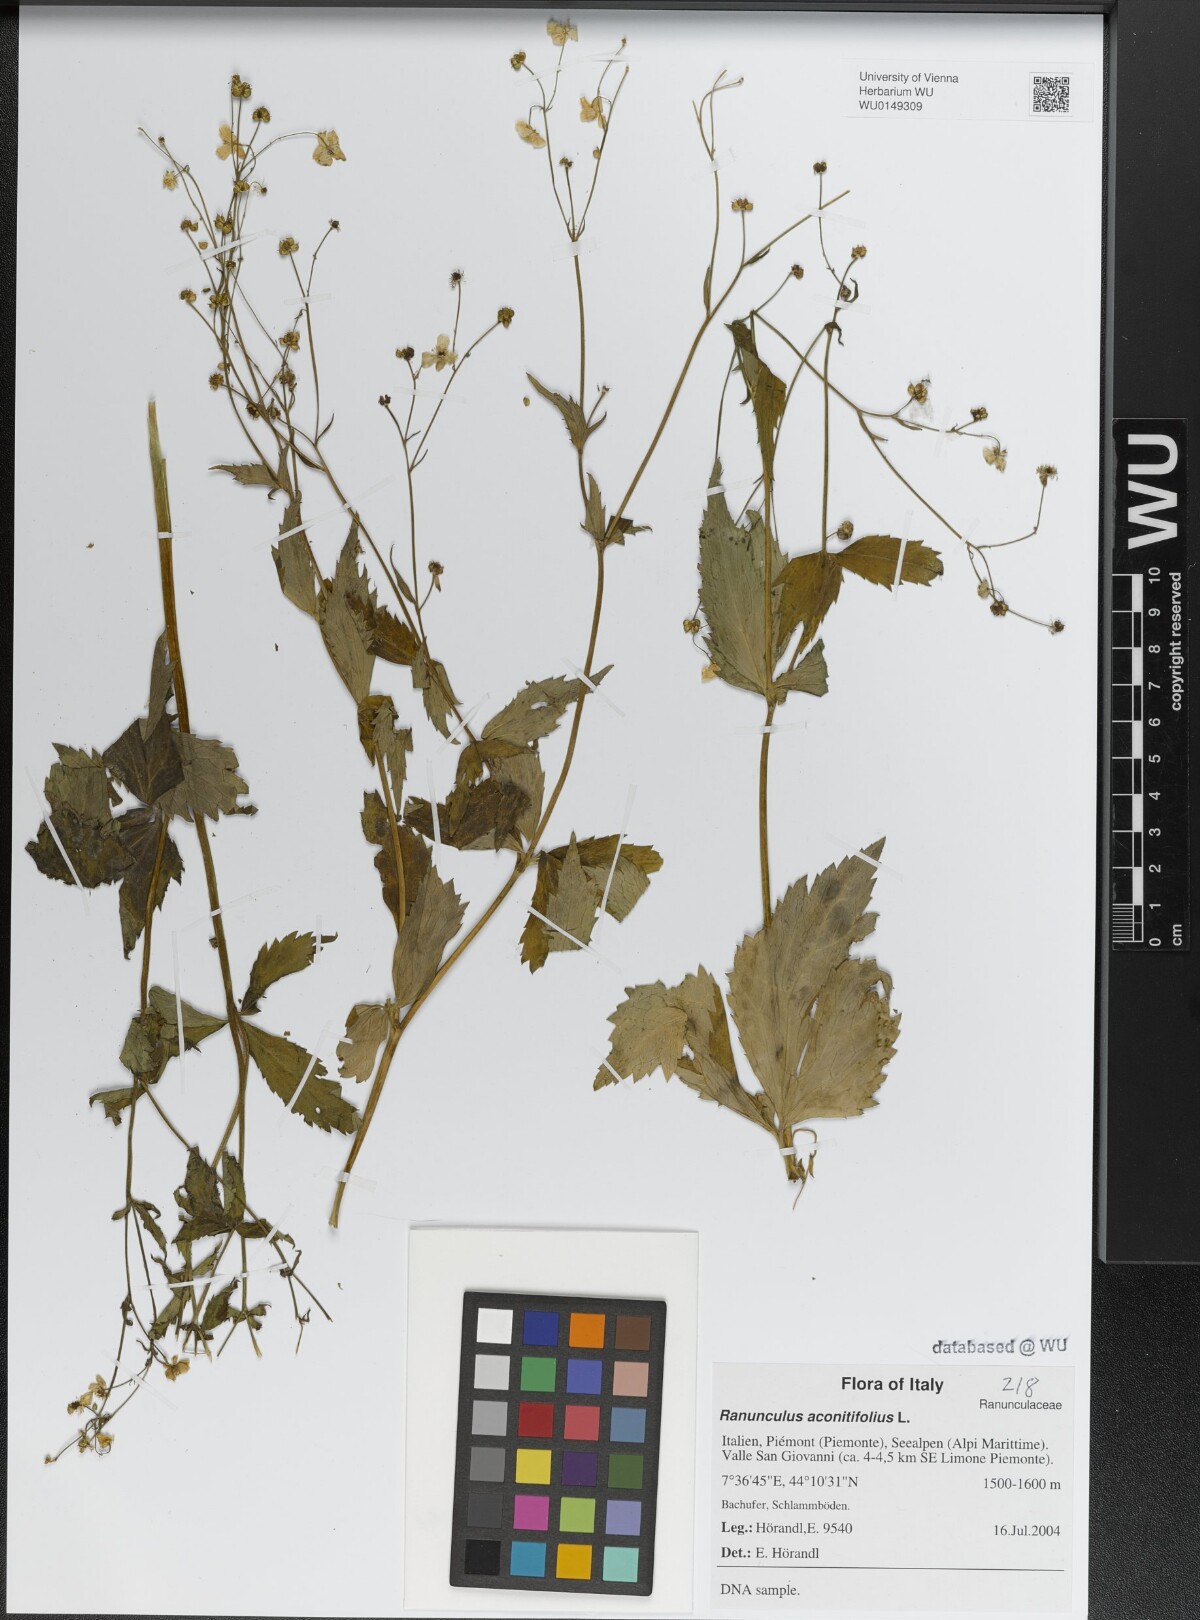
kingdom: Plantae
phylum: Tracheophyta
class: Magnoliopsida
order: Ranunculales
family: Ranunculaceae
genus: Ranunculus
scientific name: Ranunculus aconitifolius
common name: Aconite-leaved buttercup
